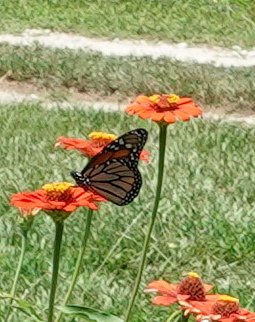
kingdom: Animalia
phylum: Arthropoda
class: Insecta
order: Lepidoptera
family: Nymphalidae
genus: Danaus
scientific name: Danaus plexippus
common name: Monarch
